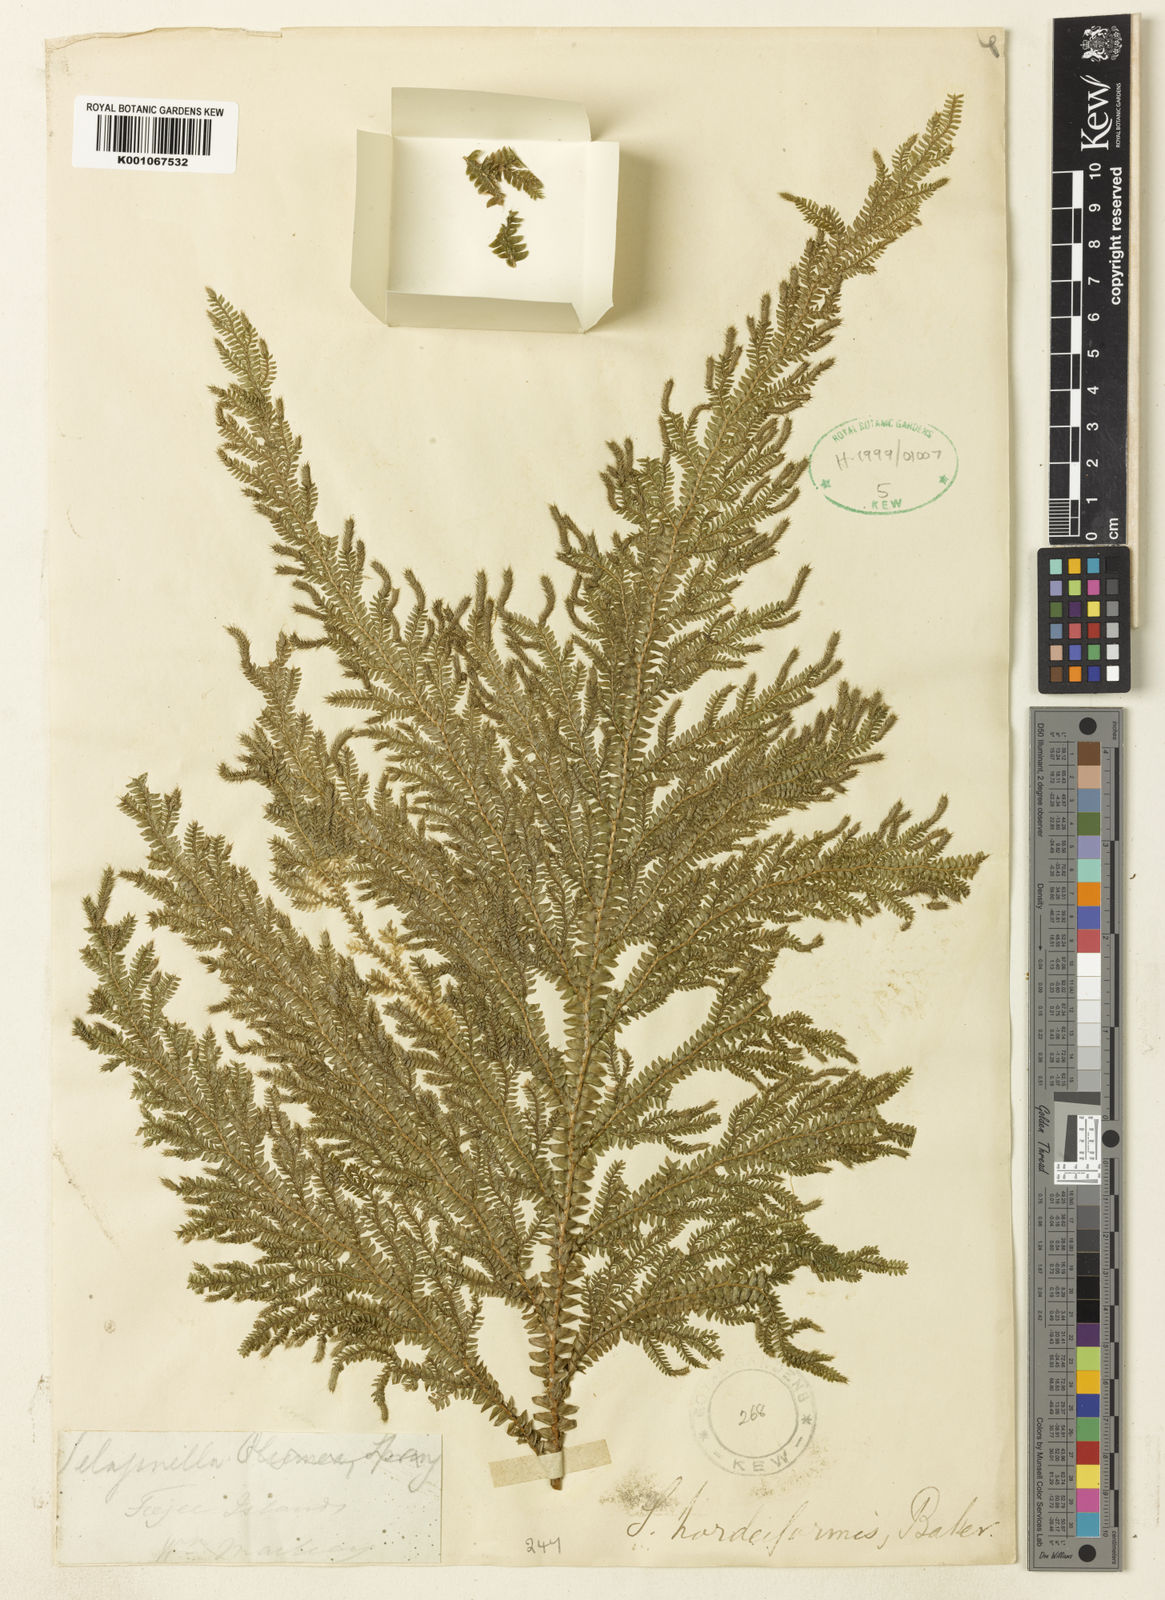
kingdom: Plantae
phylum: Tracheophyta
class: Lycopodiopsida
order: Selaginellales
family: Selaginellaceae
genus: Selaginella
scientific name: Selaginella hordeiformis
